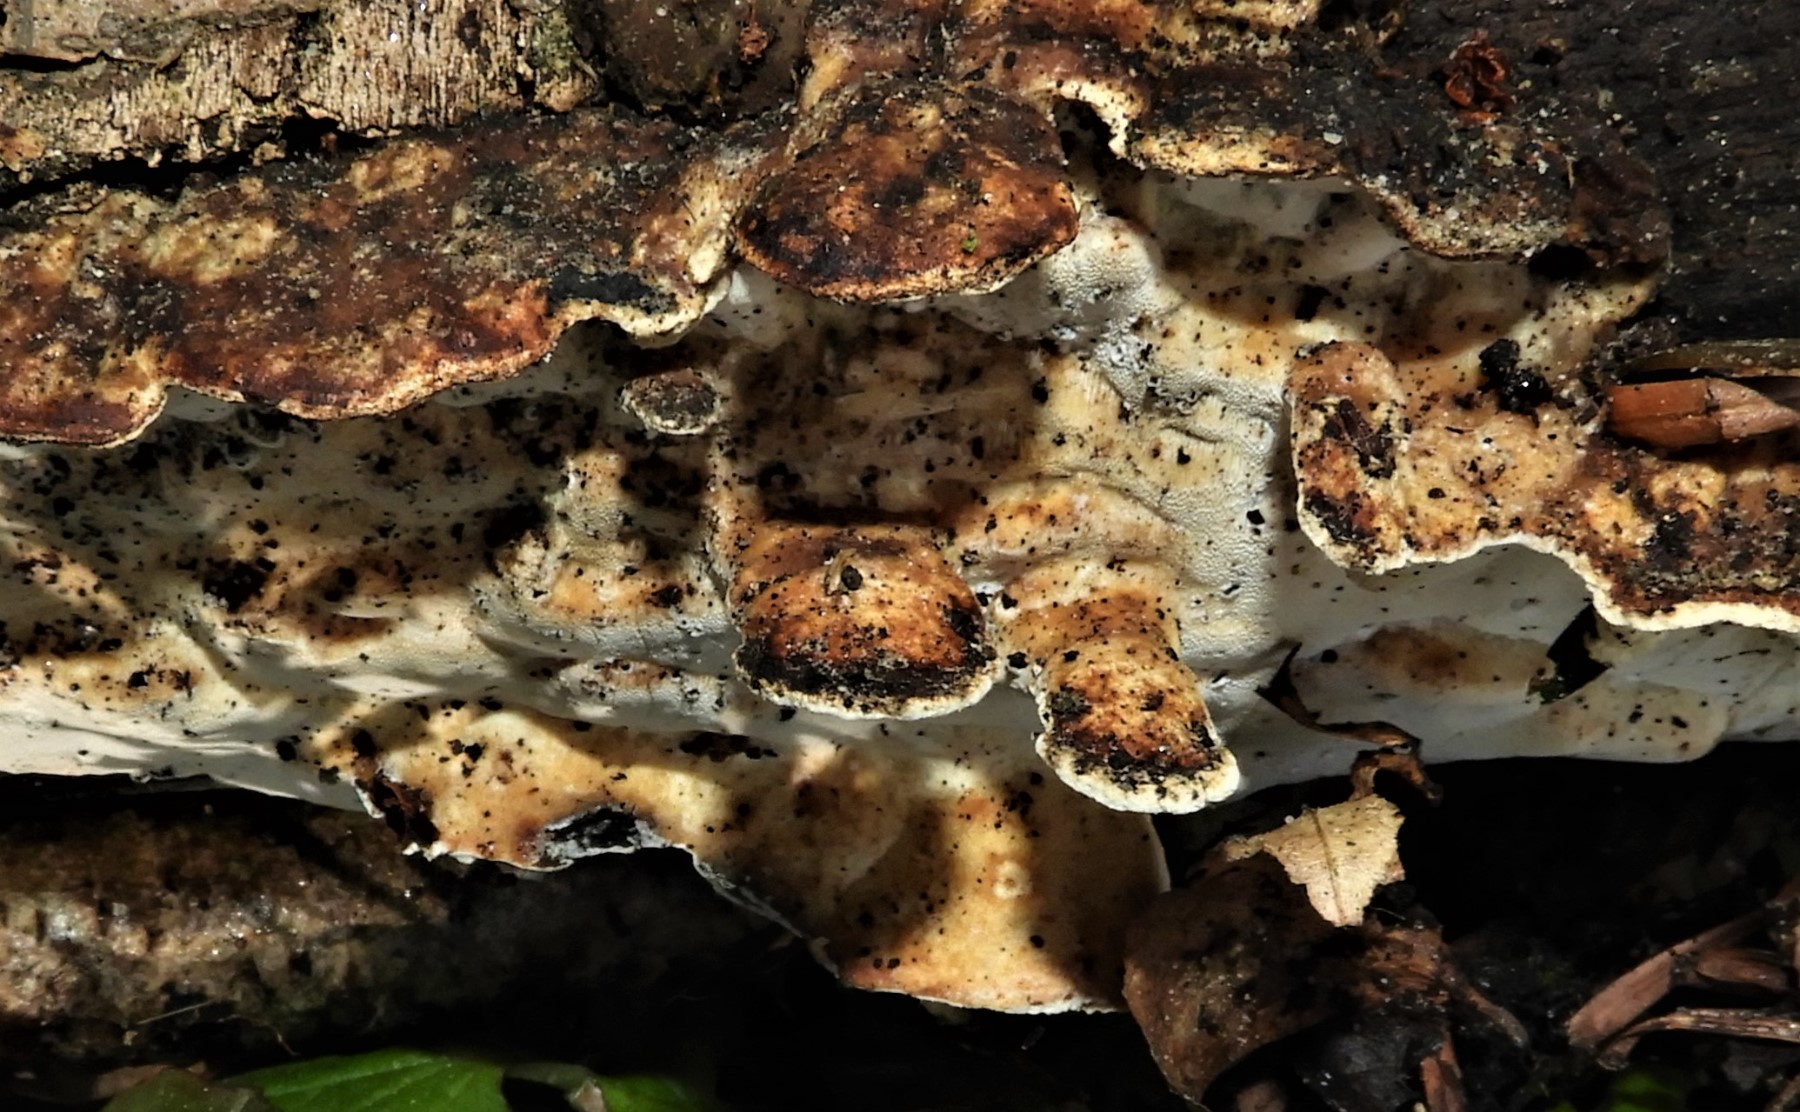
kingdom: Fungi
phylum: Basidiomycota
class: Agaricomycetes
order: Russulales
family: Bondarzewiaceae
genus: Heterobasidion
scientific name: Heterobasidion annosum
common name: almindelig rodfordærver
